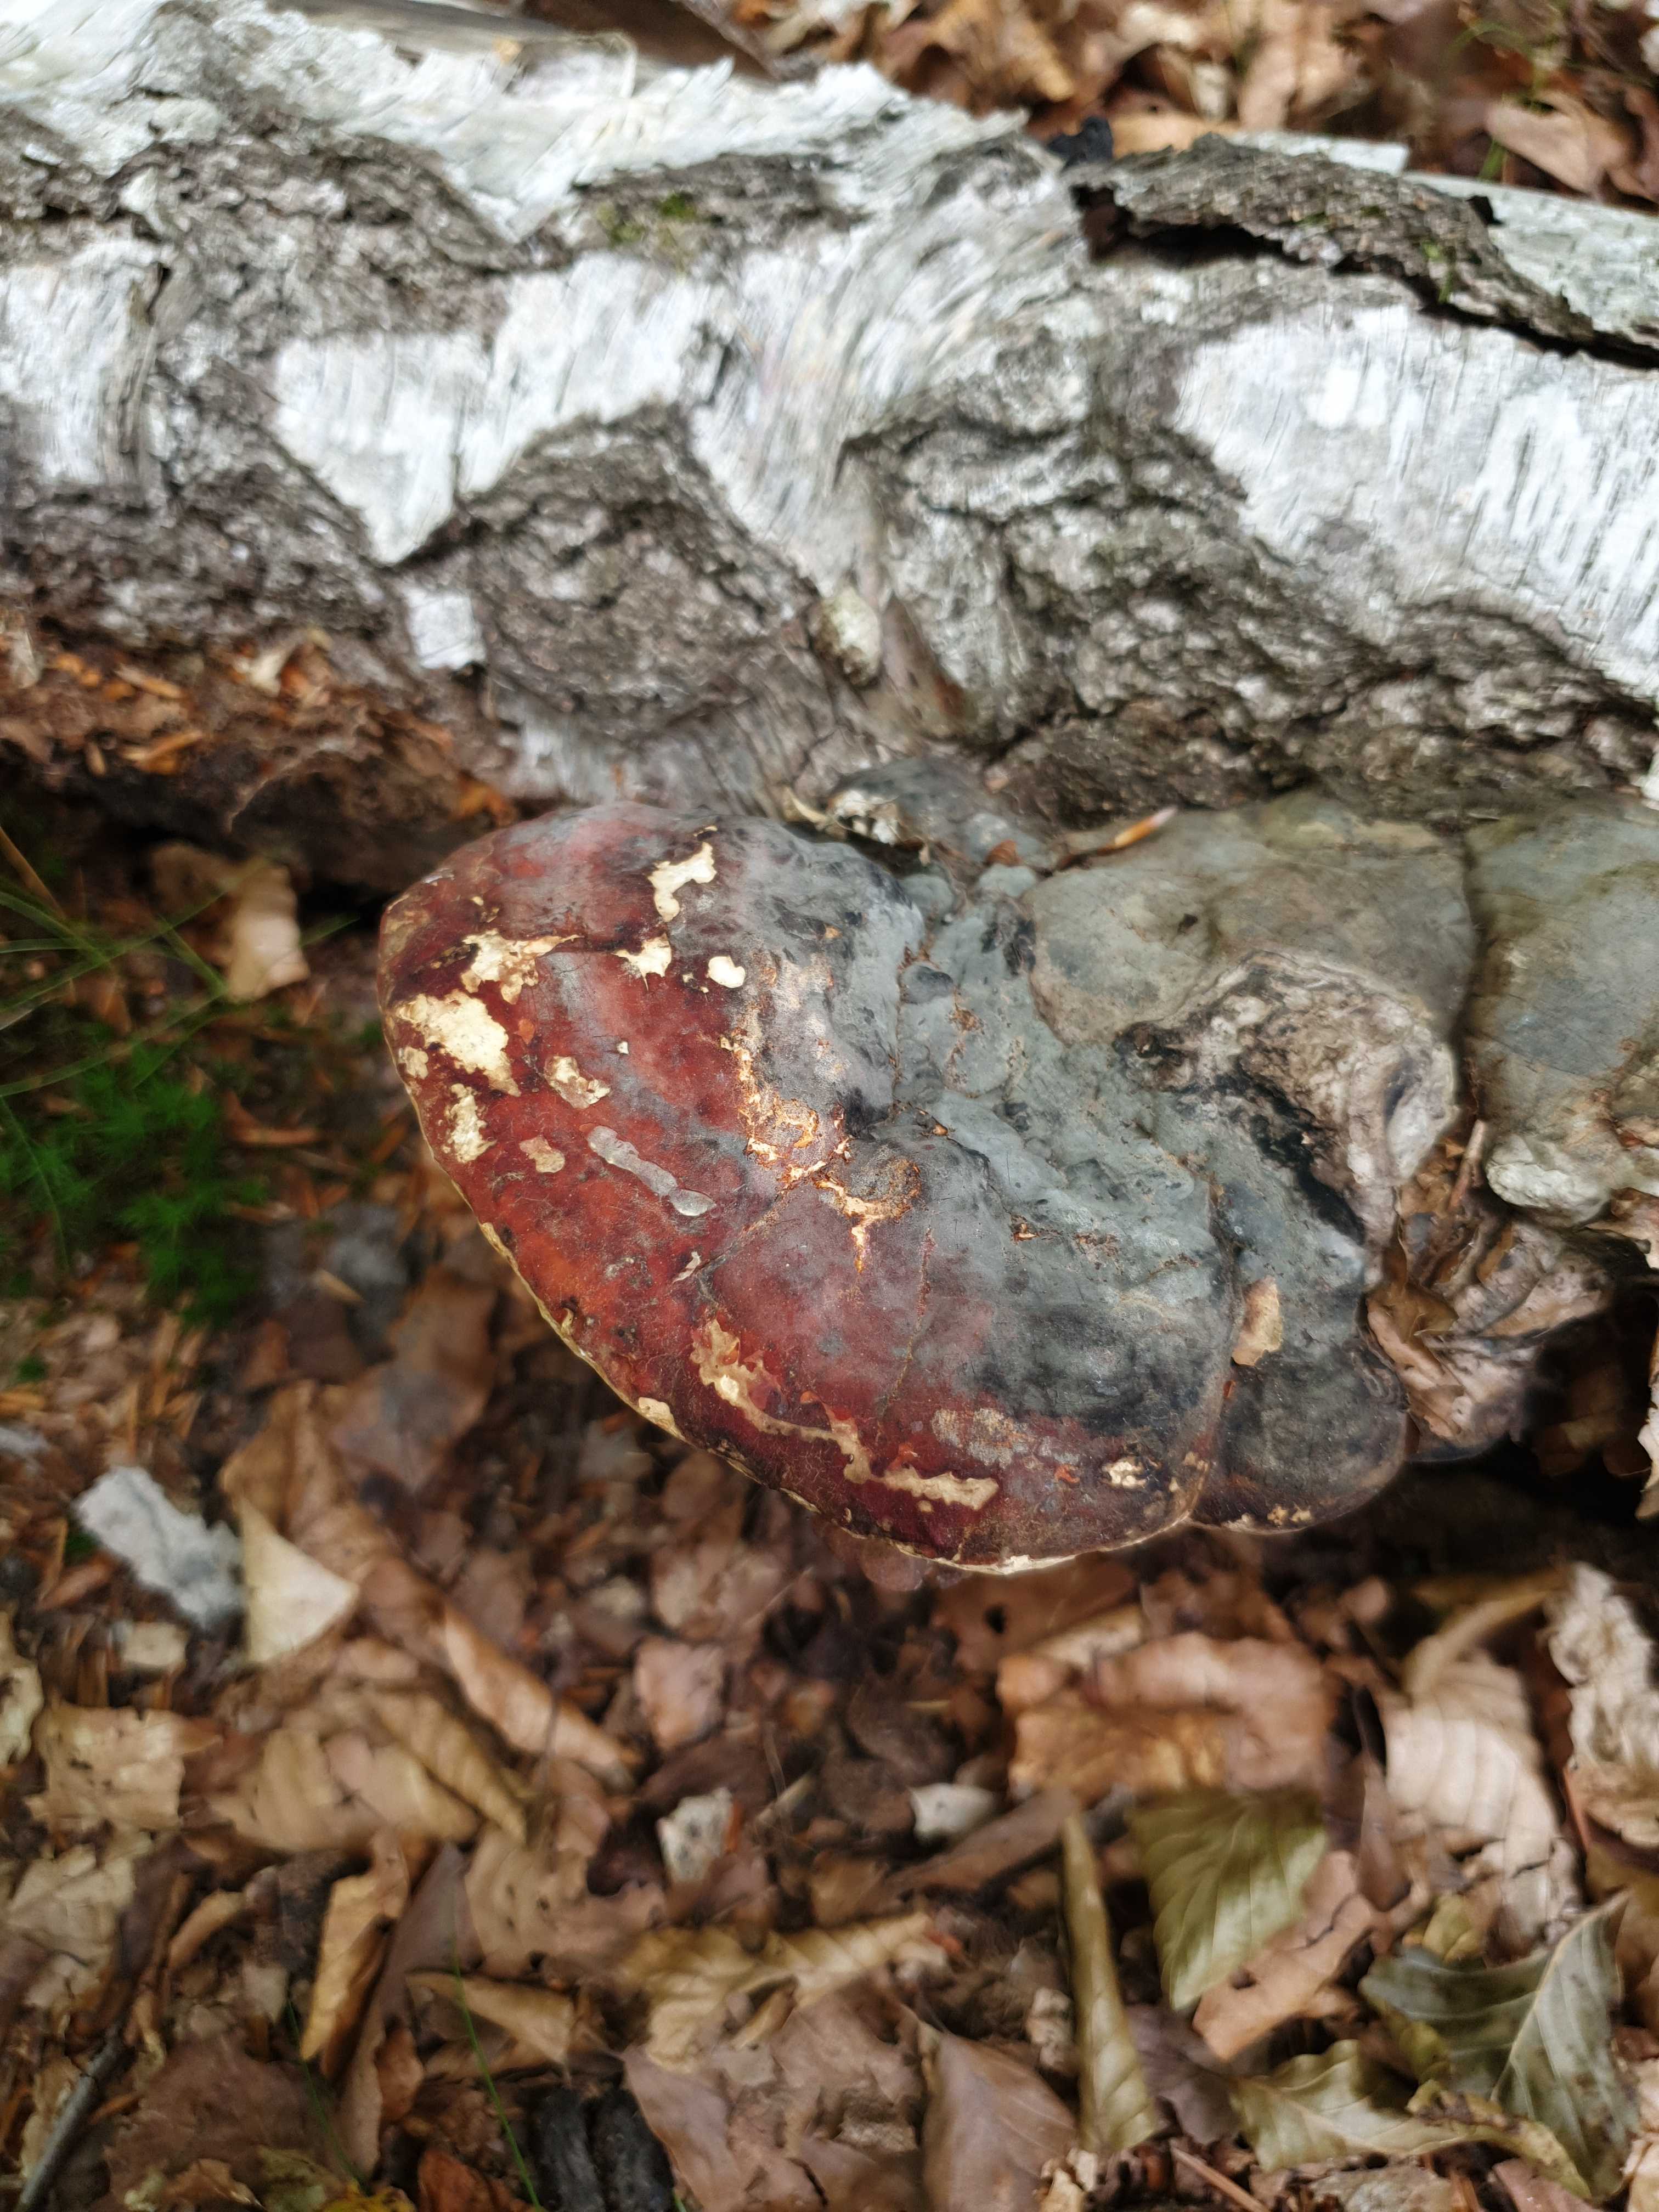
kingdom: Fungi
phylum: Basidiomycota
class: Agaricomycetes
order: Polyporales
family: Fomitopsidaceae
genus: Fomitopsis
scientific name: Fomitopsis pinicola
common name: randbæltet hovporesvamp
